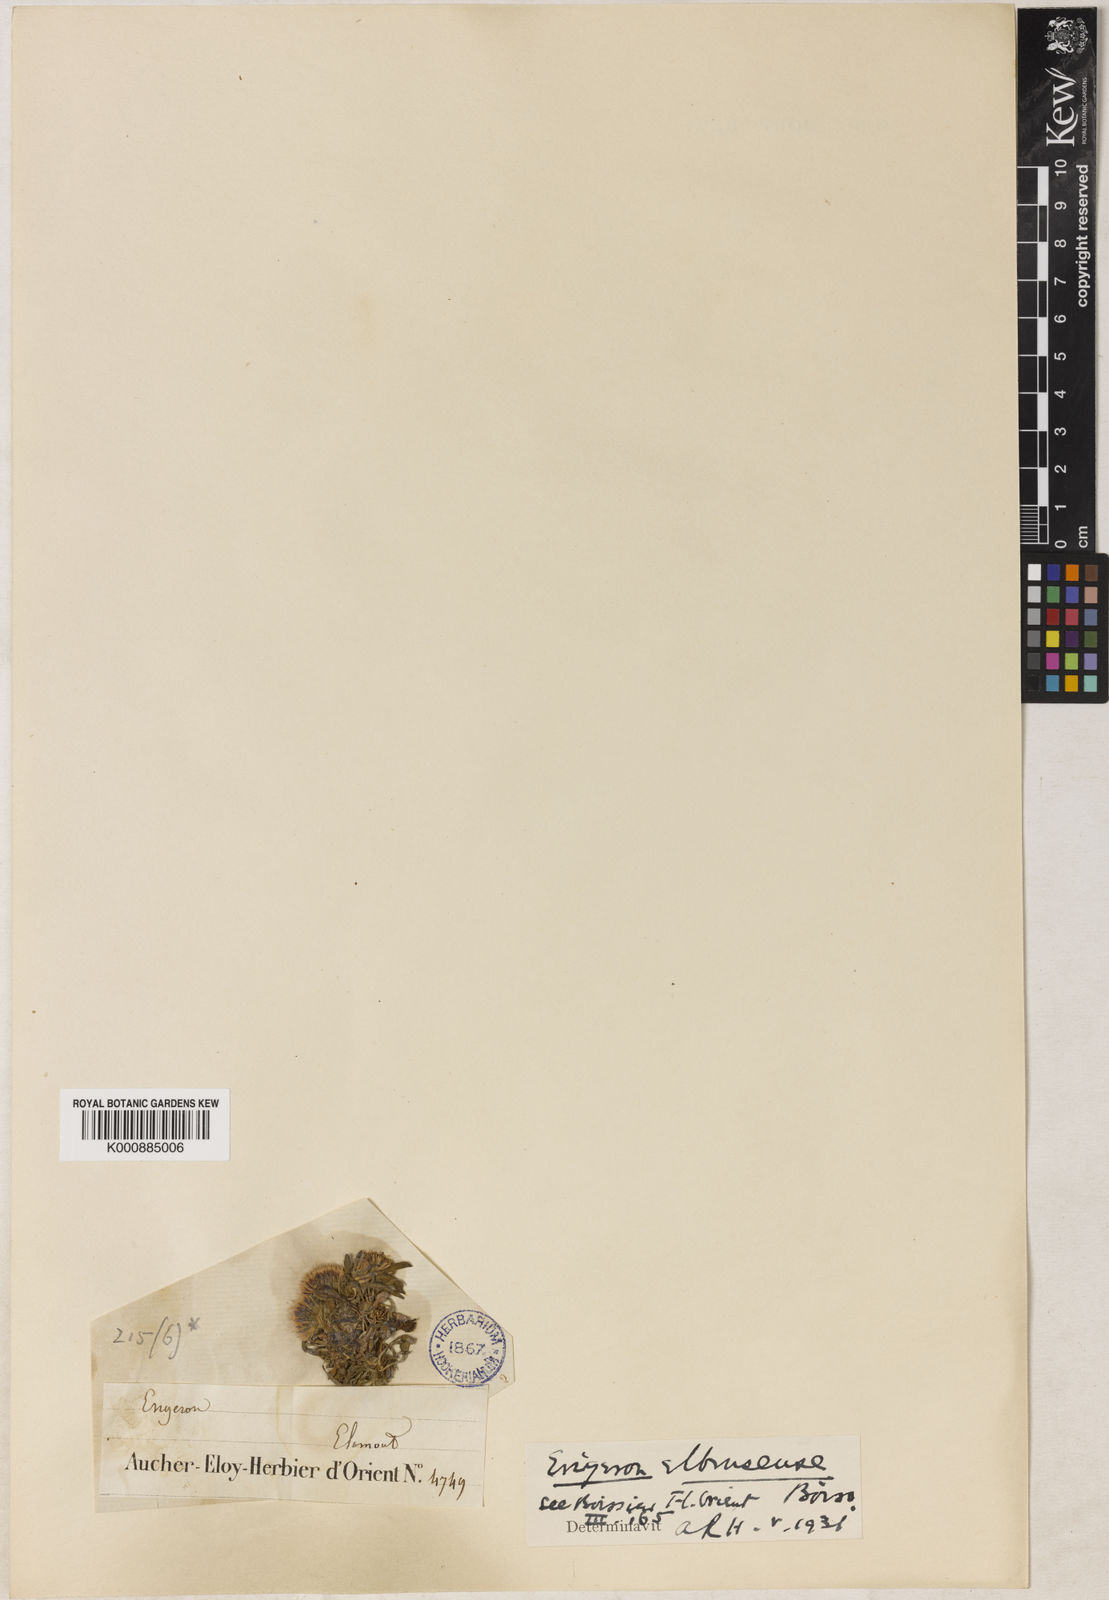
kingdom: Plantae
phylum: Tracheophyta
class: Magnoliopsida
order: Asterales
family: Asteraceae
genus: Erigeron
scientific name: Erigeron elborsensis
